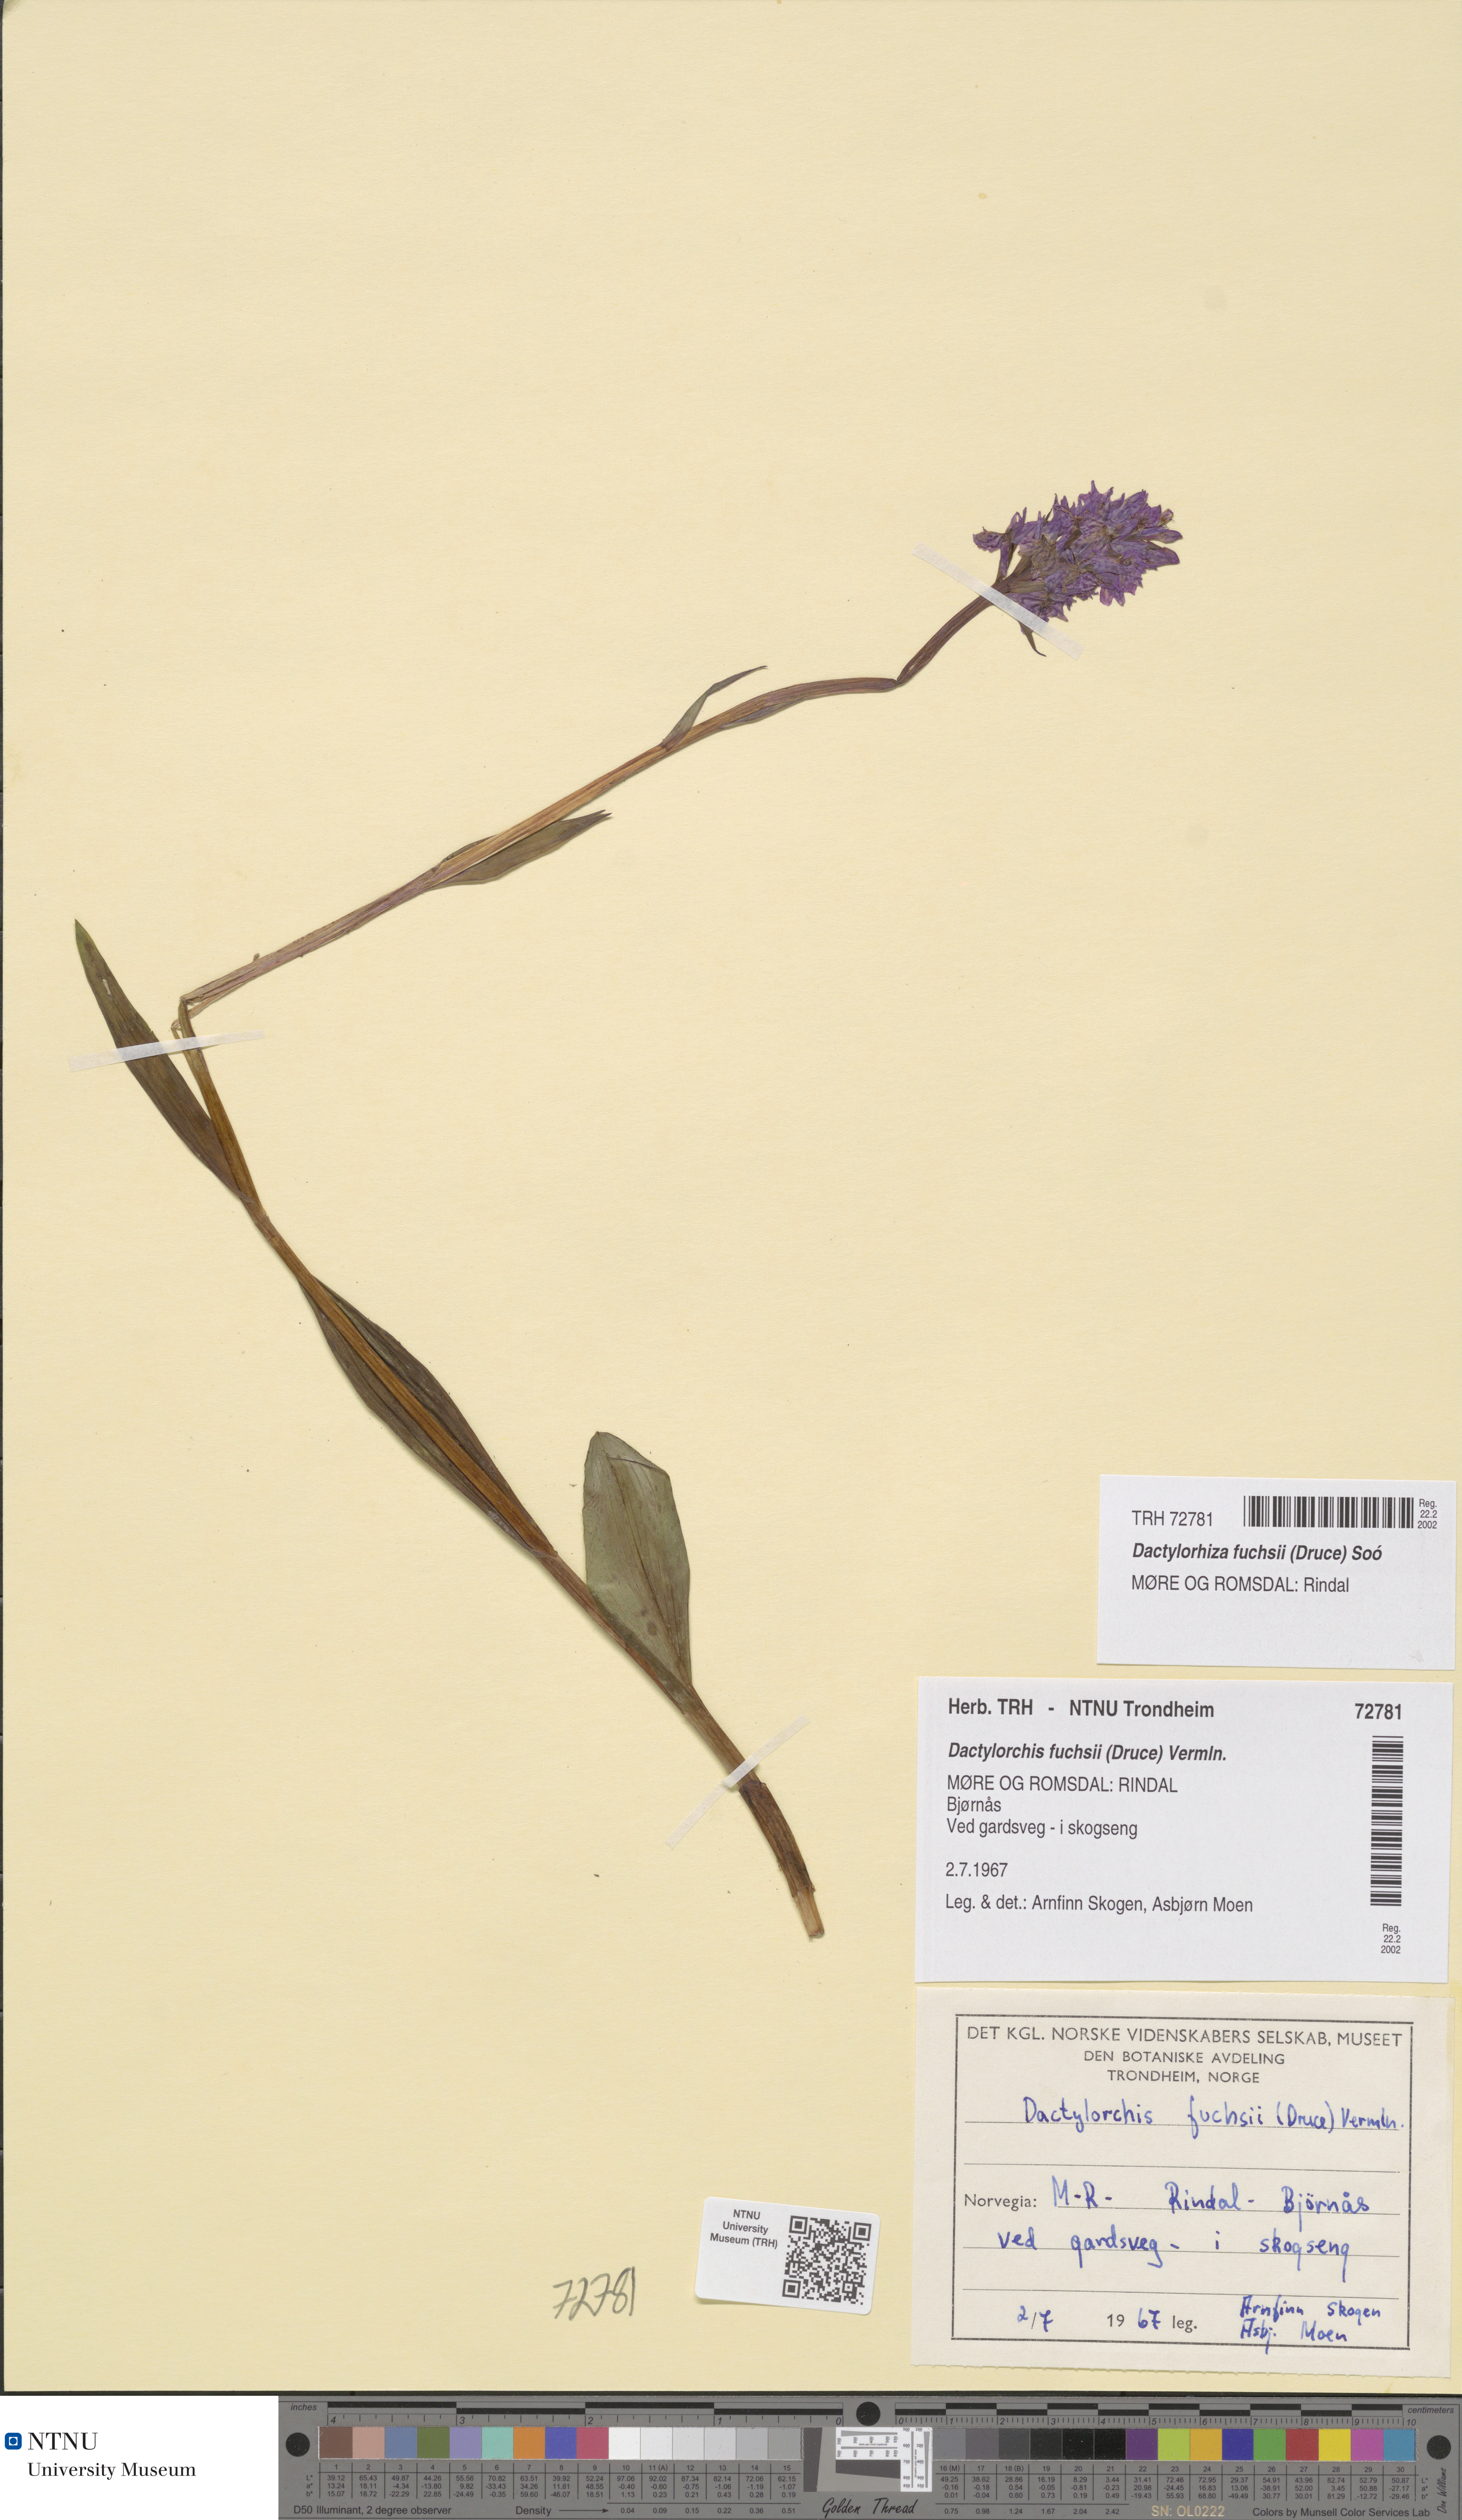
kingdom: Plantae
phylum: Tracheophyta
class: Liliopsida
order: Asparagales
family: Orchidaceae
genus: Dactylorhiza
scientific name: Dactylorhiza maculata
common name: Heath spotted-orchid
